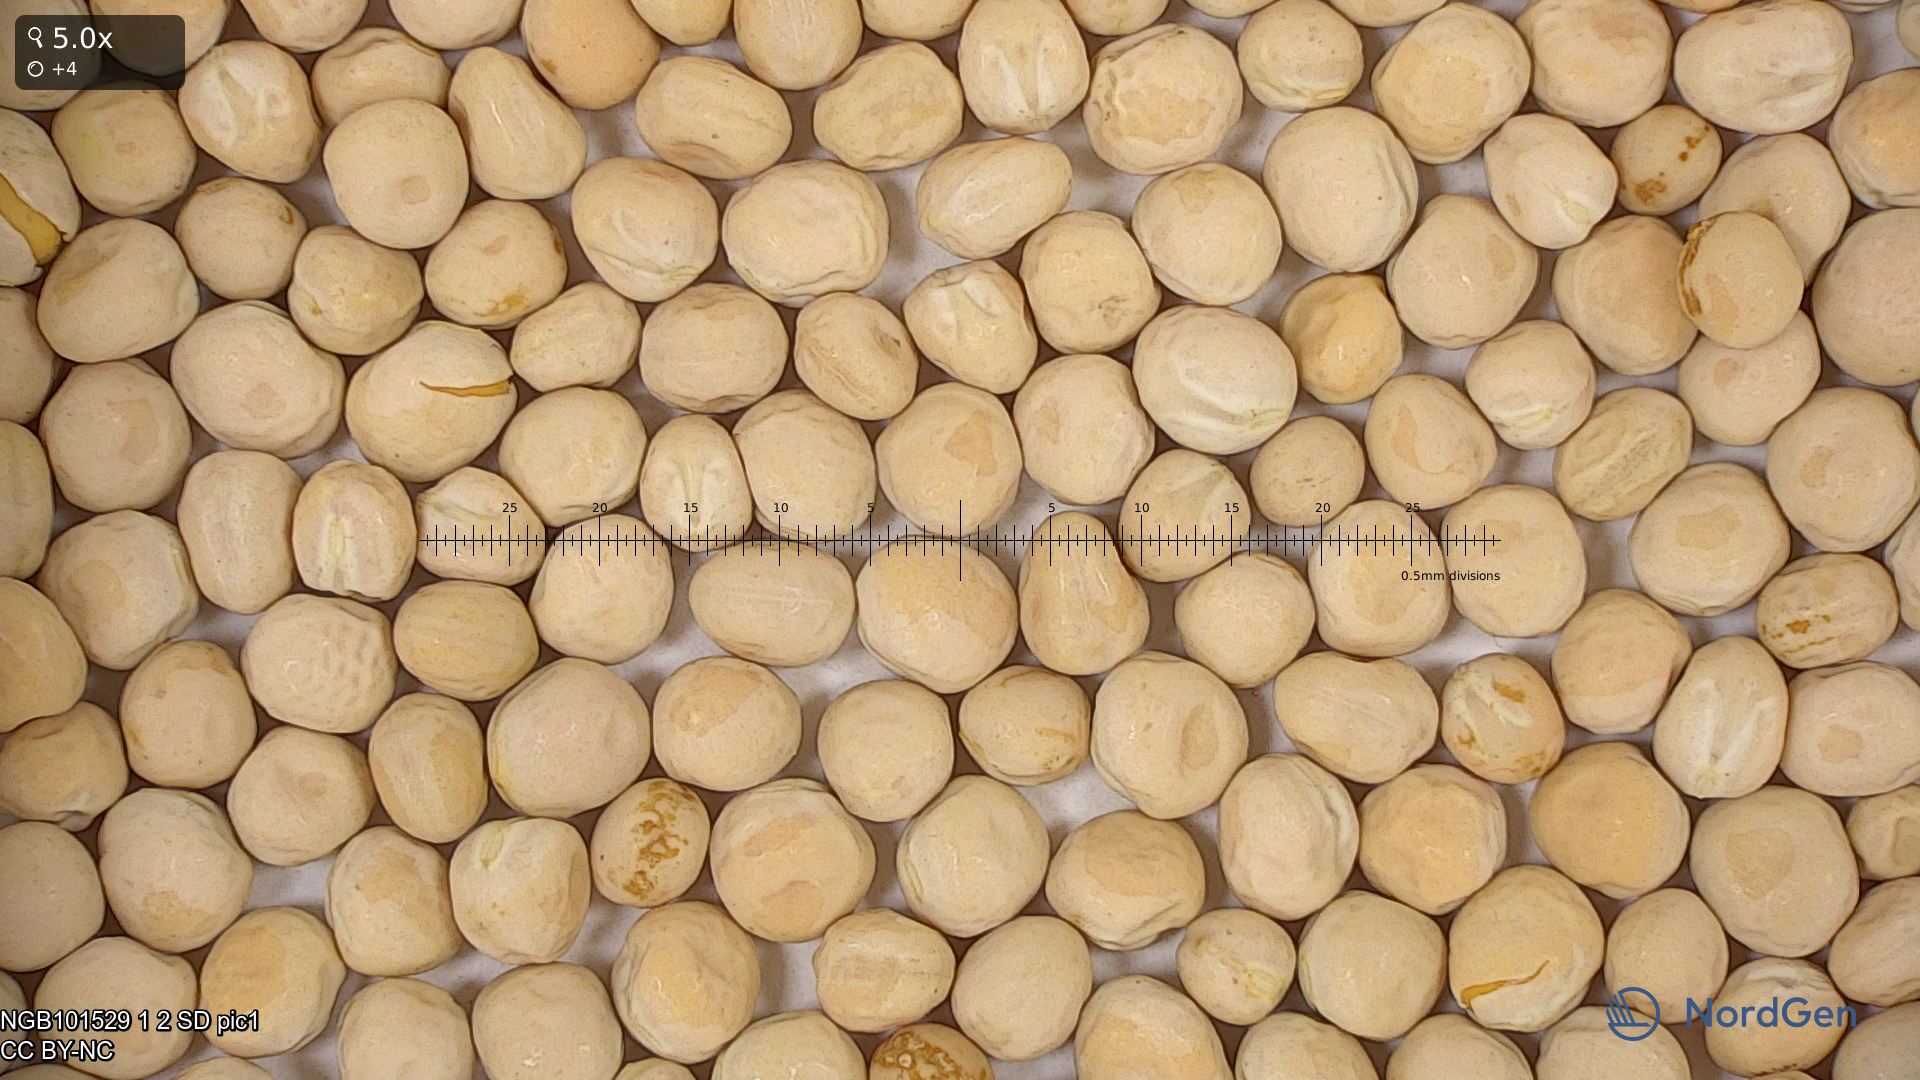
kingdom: Plantae
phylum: Tracheophyta
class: Magnoliopsida
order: Fabales
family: Fabaceae
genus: Lathyrus
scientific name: Lathyrus oleraceus
